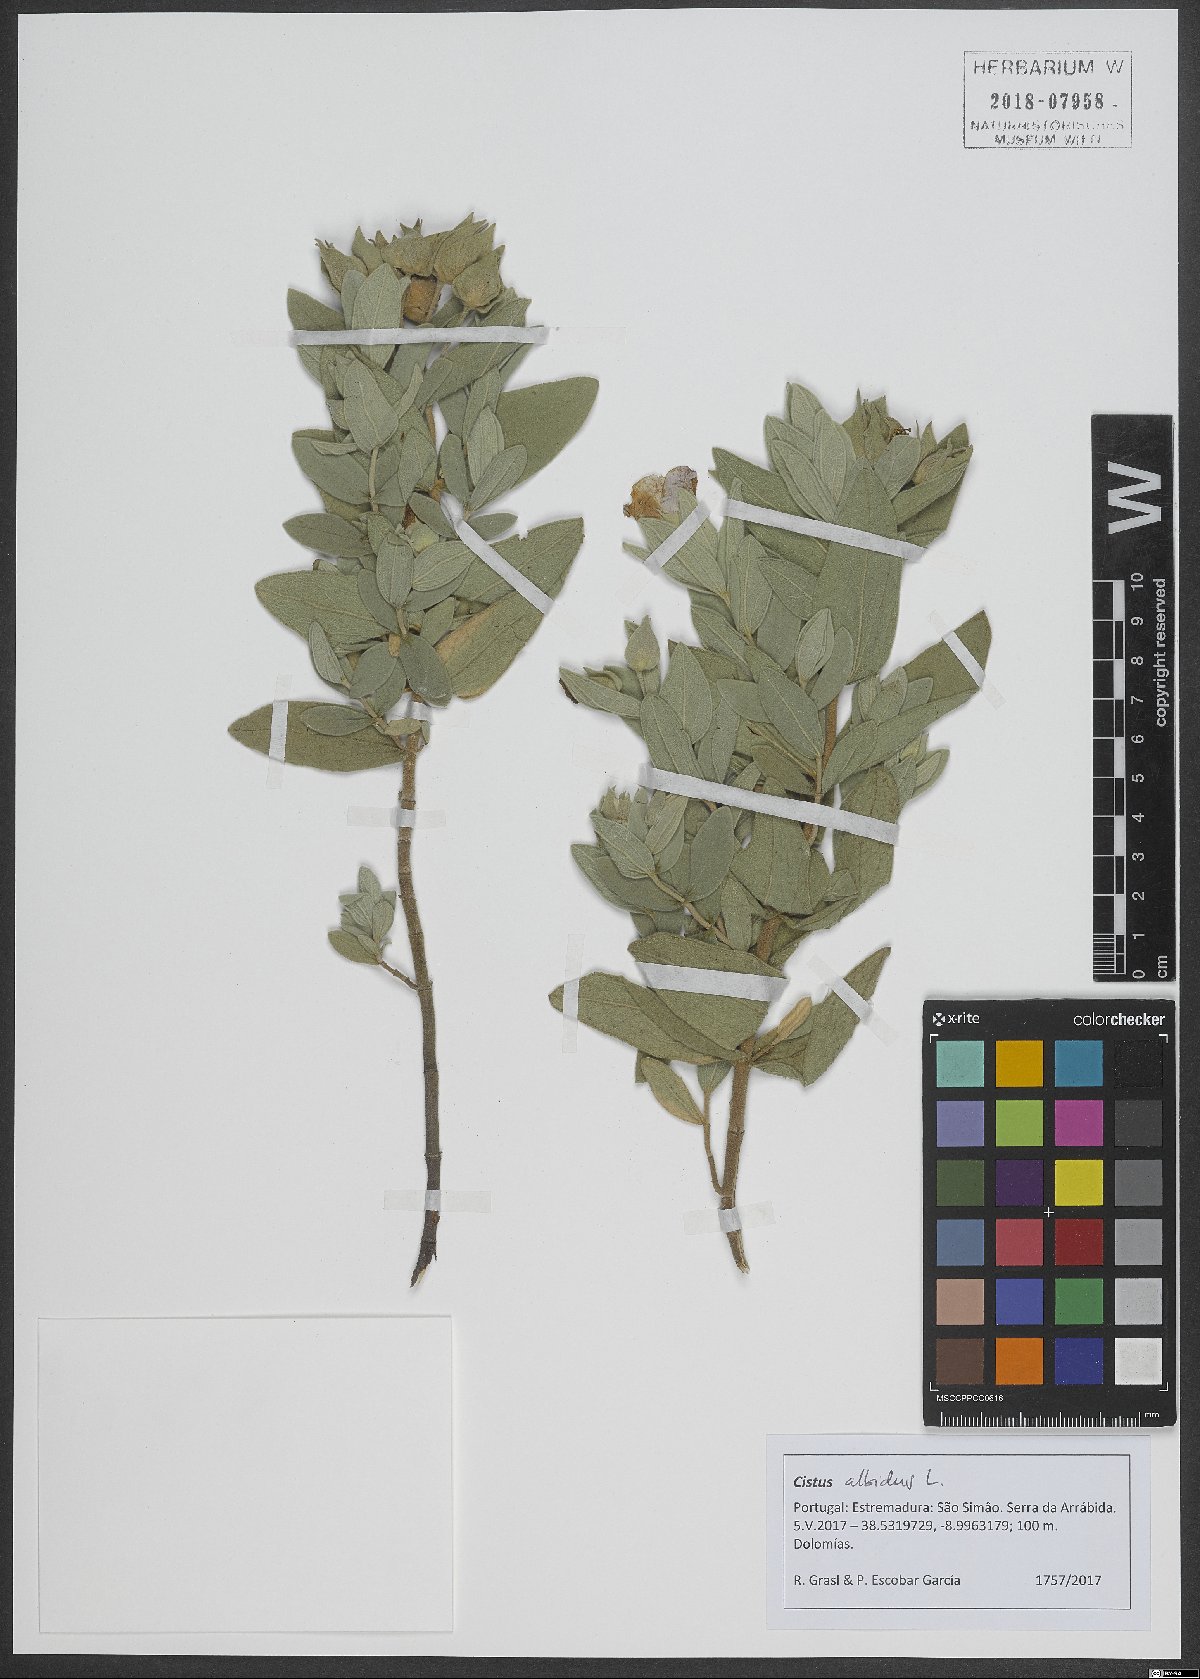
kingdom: Plantae
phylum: Tracheophyta
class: Magnoliopsida
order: Malvales
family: Cistaceae
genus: Cistus
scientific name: Cistus albidus
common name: White-leaf rock-rose
